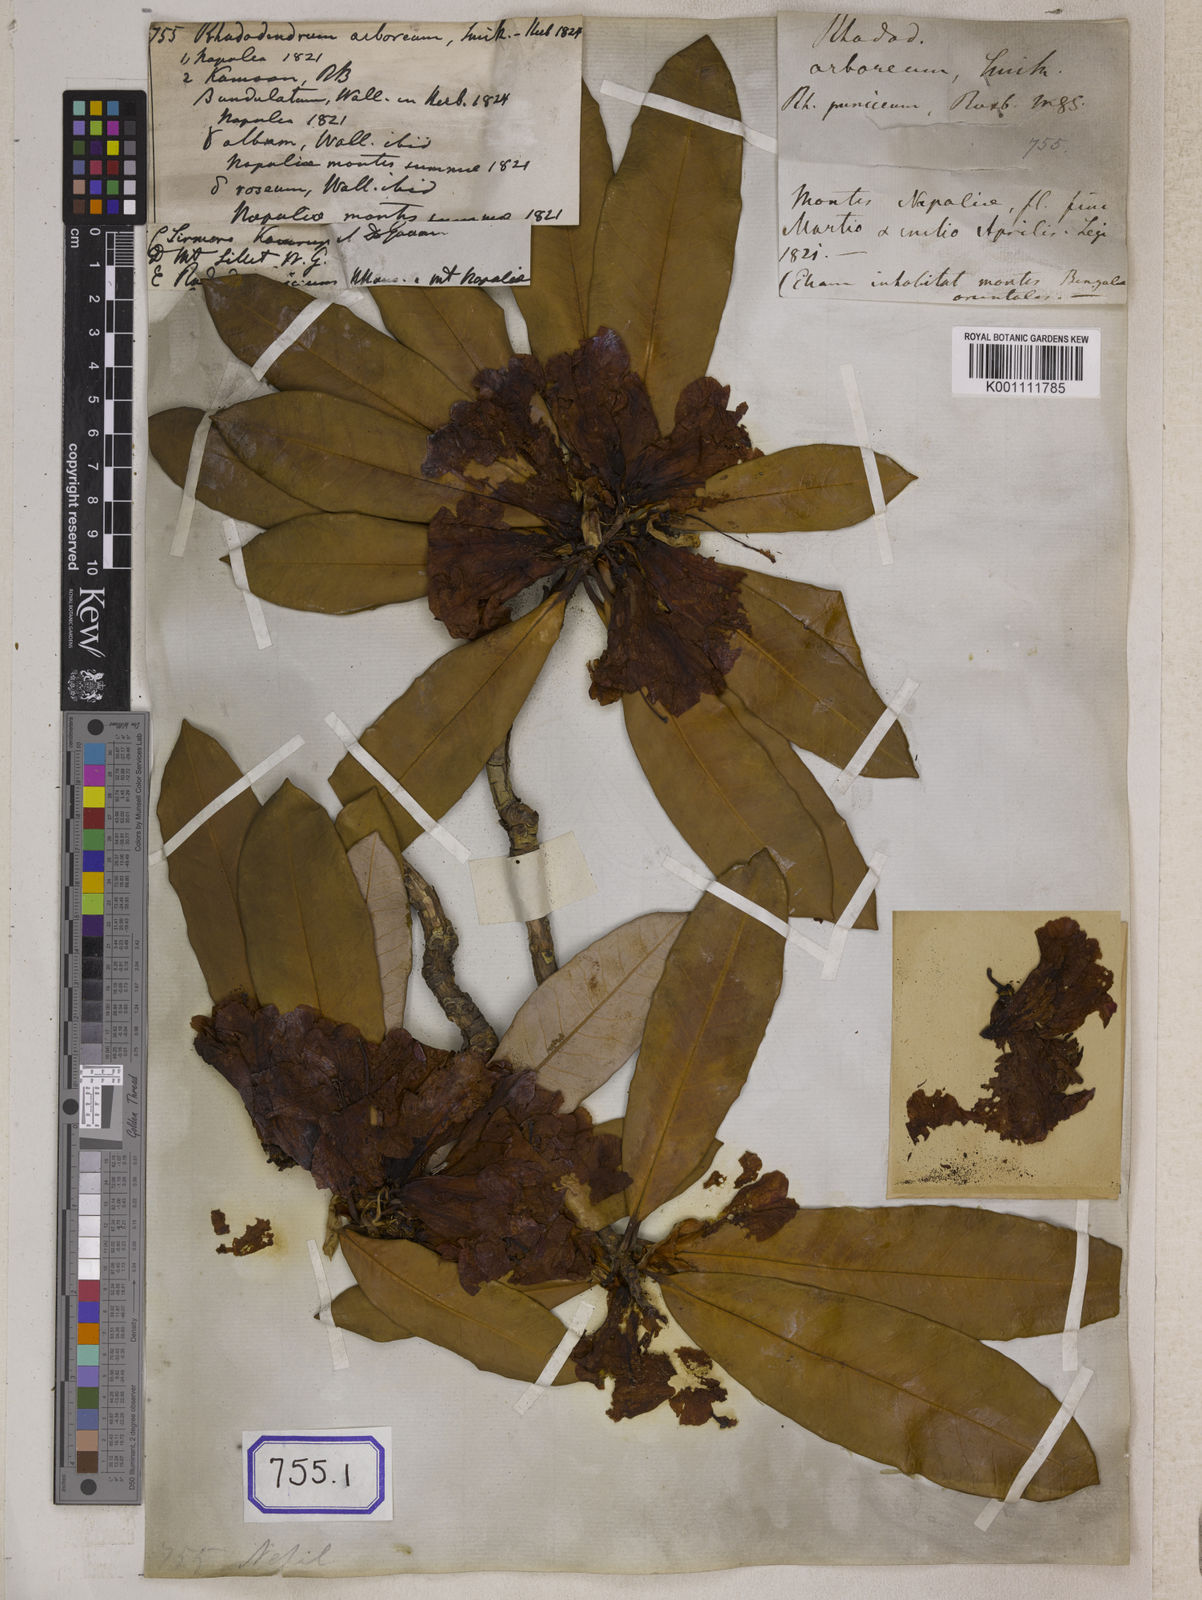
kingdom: Plantae
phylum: Tracheophyta
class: Magnoliopsida
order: Ericales
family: Ericaceae
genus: Rhododendron
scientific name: Rhododendron arboreum
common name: Tree rhododendron
